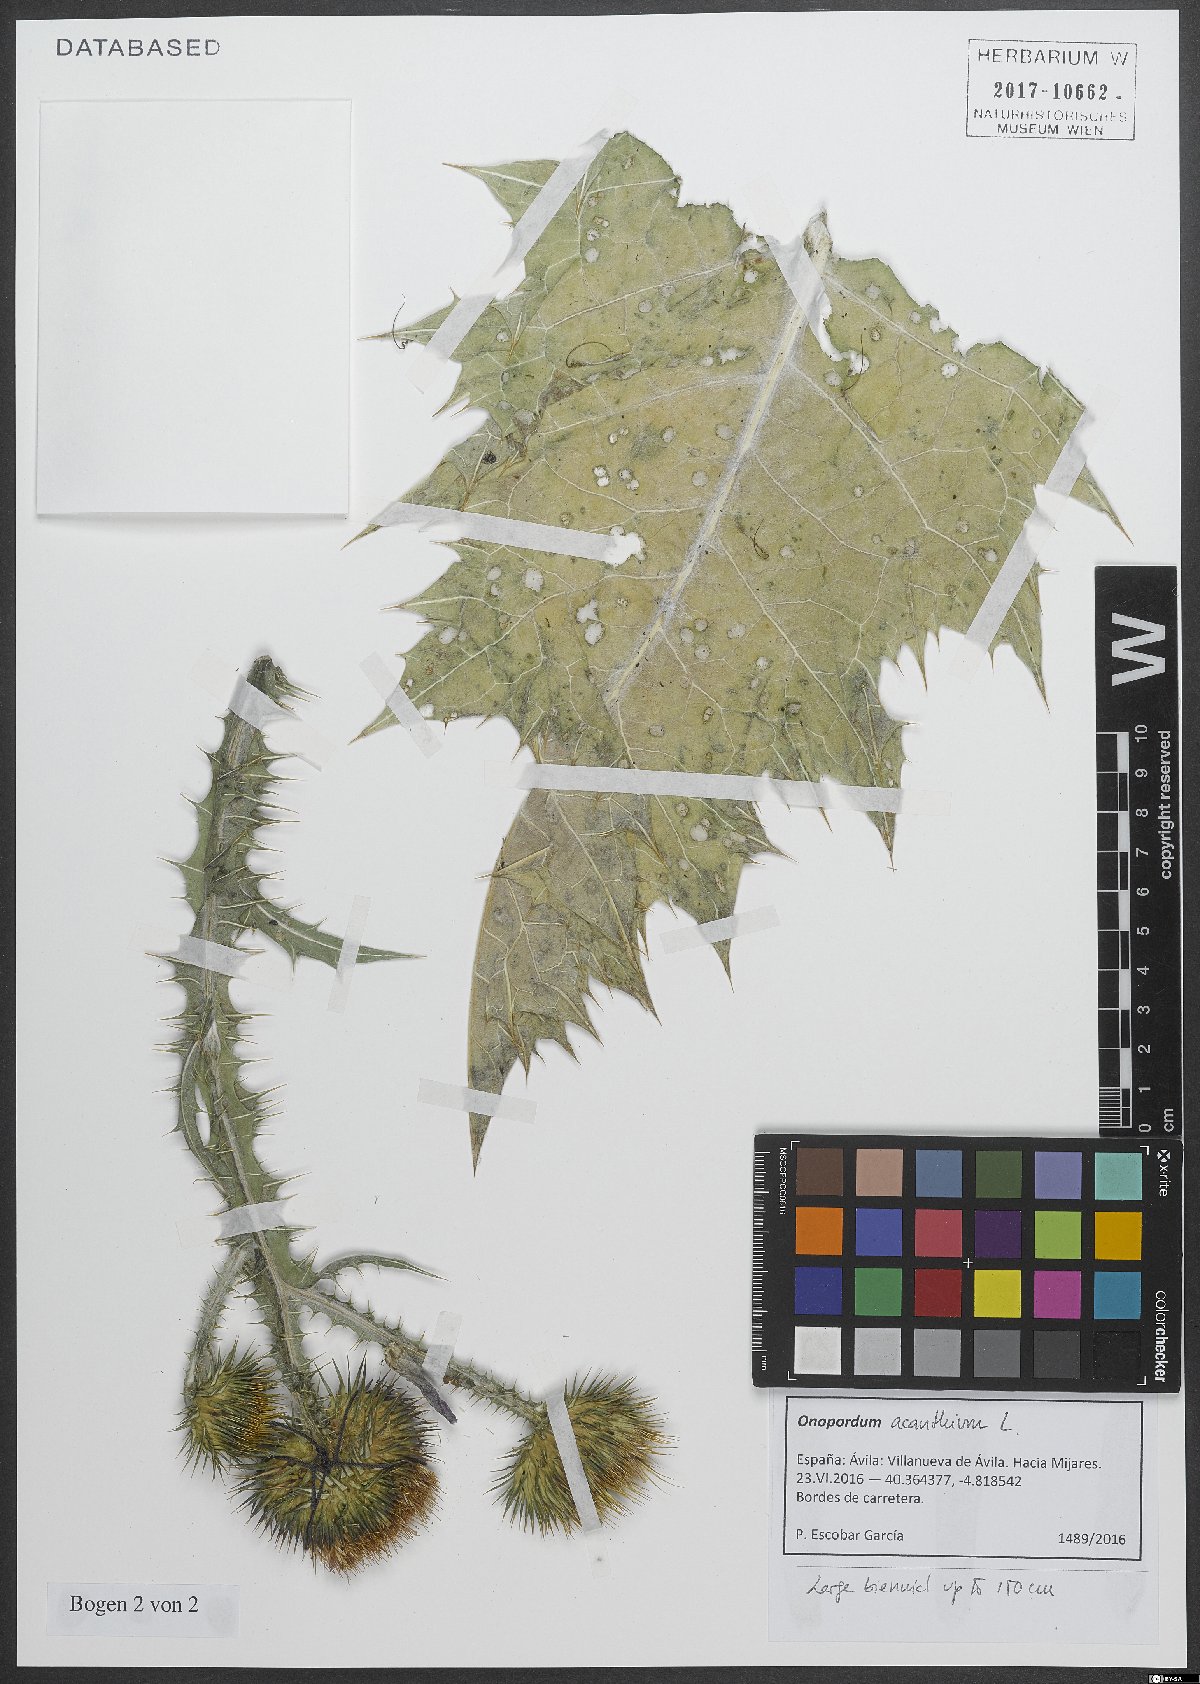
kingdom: Plantae
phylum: Tracheophyta
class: Magnoliopsida
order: Asterales
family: Asteraceae
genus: Onopordum
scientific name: Onopordum acanthium
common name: Scotch thistle
